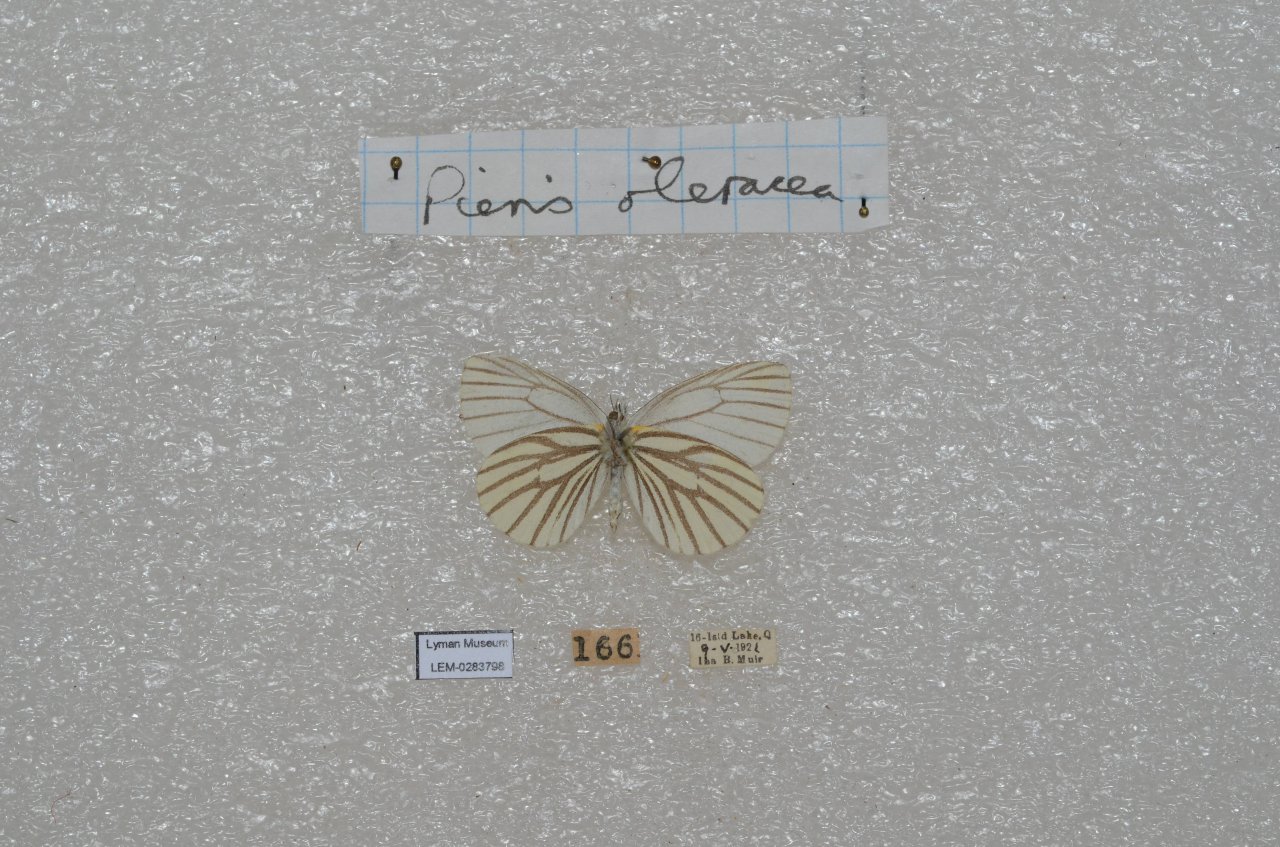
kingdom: Animalia
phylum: Arthropoda
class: Insecta
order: Lepidoptera
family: Pieridae
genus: Pieris
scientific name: Pieris oleracea
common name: Mustard White
